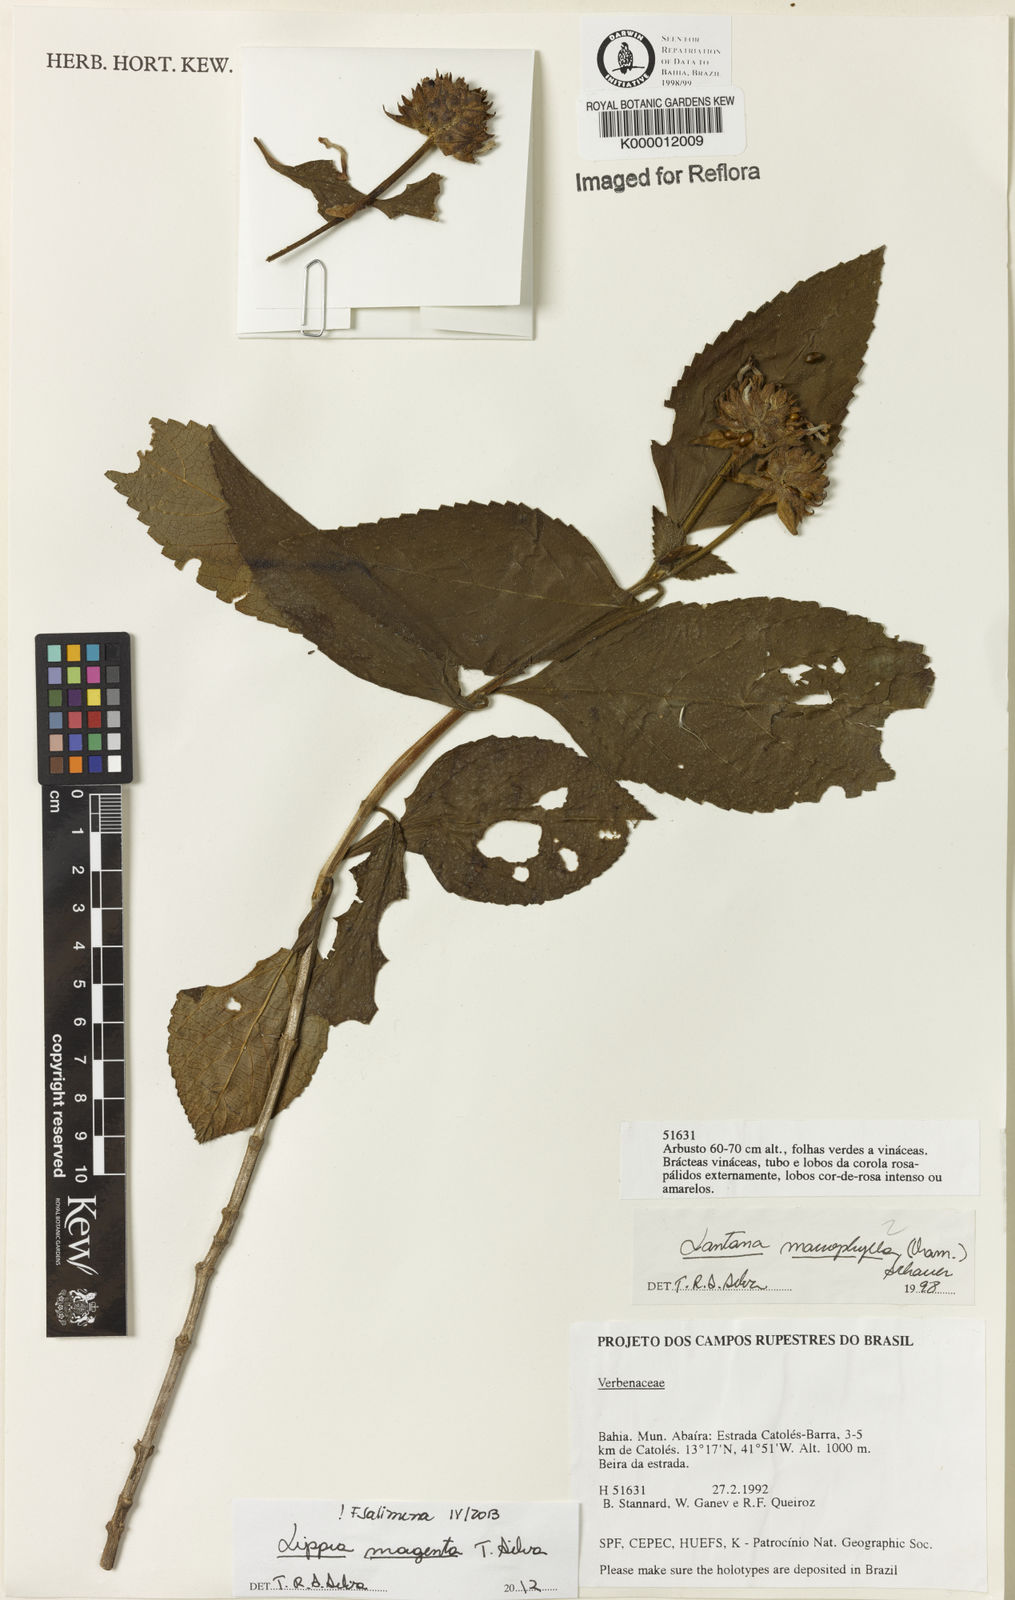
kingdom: Plantae
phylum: Tracheophyta
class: Magnoliopsida
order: Lamiales
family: Verbenaceae
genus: Lippia
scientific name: Lippia
